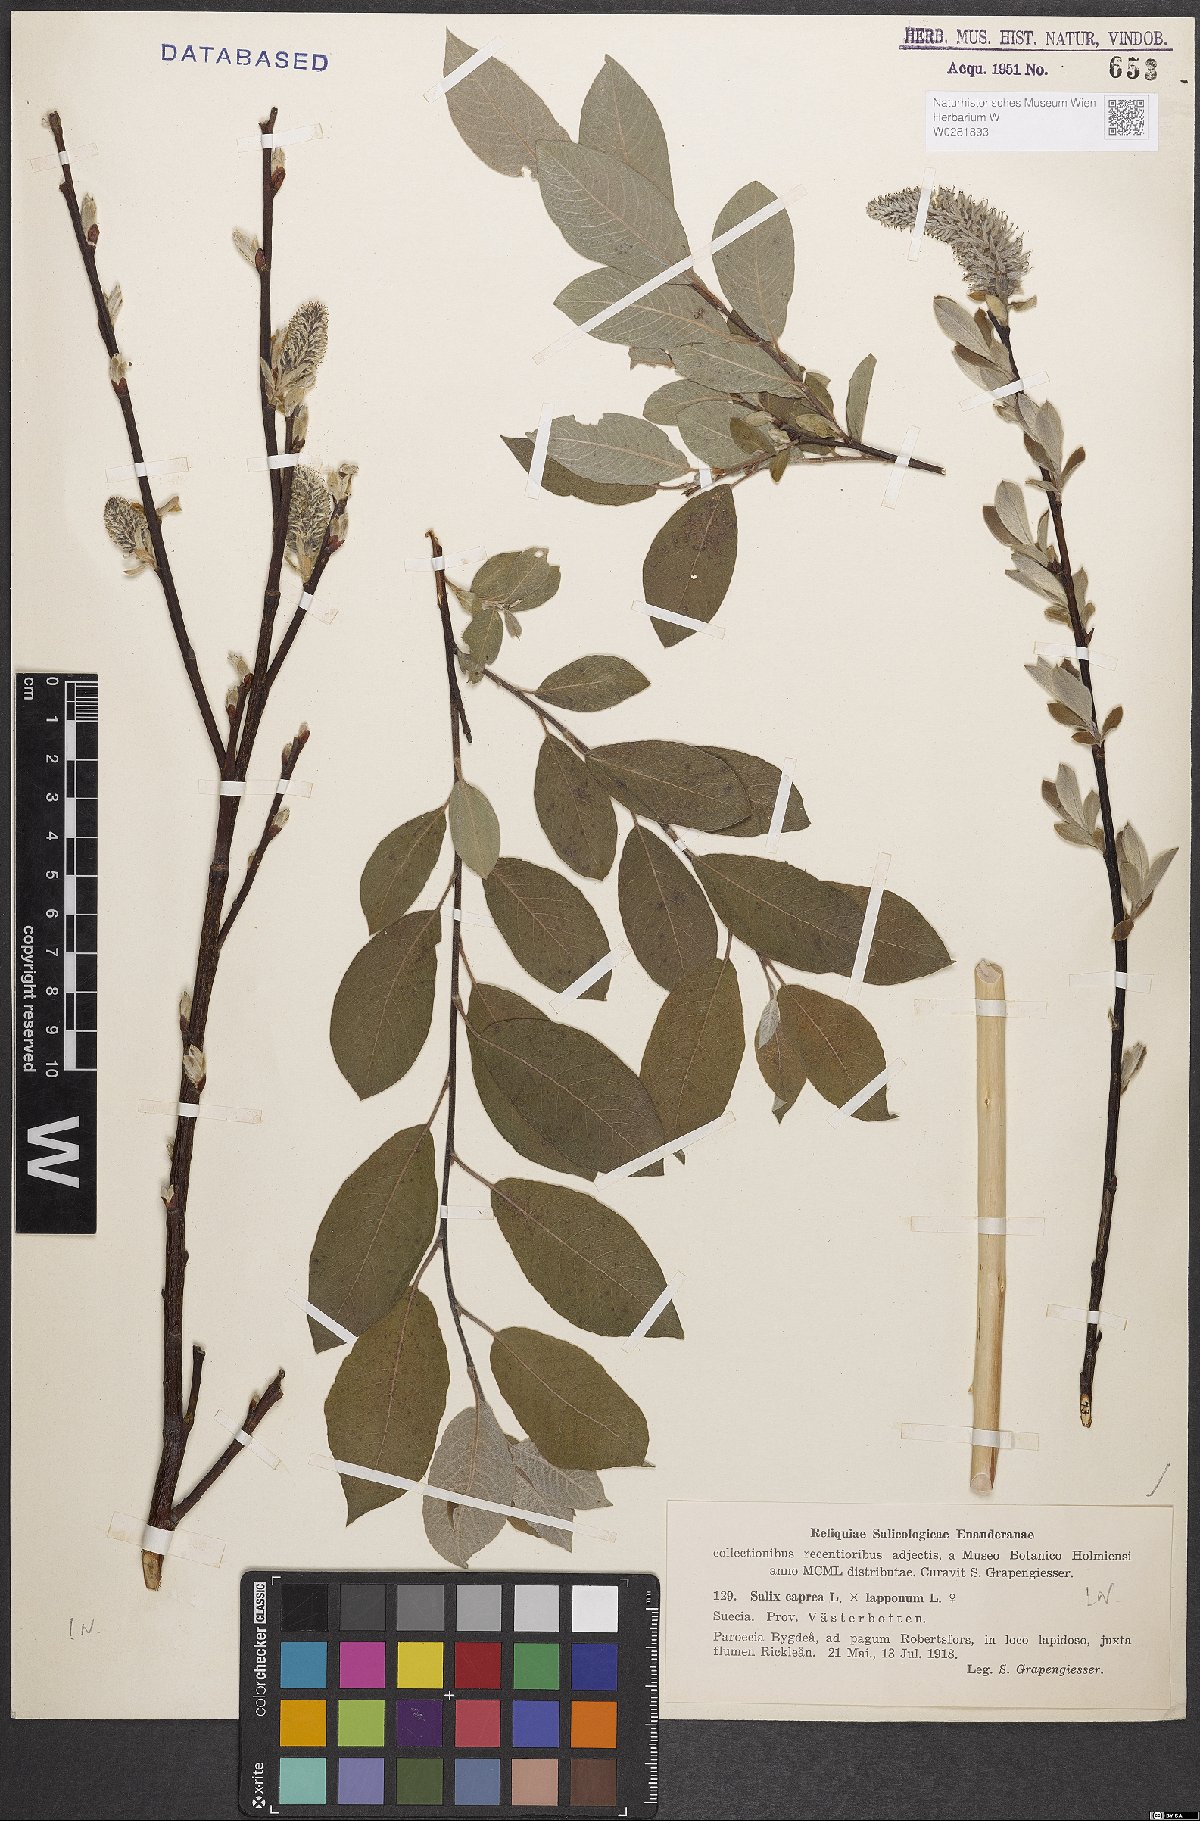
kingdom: Plantae
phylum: Tracheophyta
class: Magnoliopsida
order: Malpighiales
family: Salicaceae
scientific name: Salicaceae
